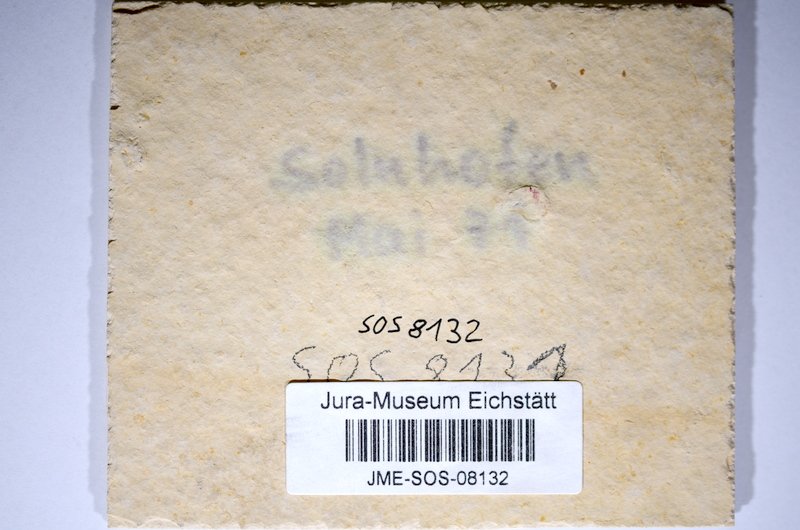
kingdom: Animalia
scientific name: Animalia
